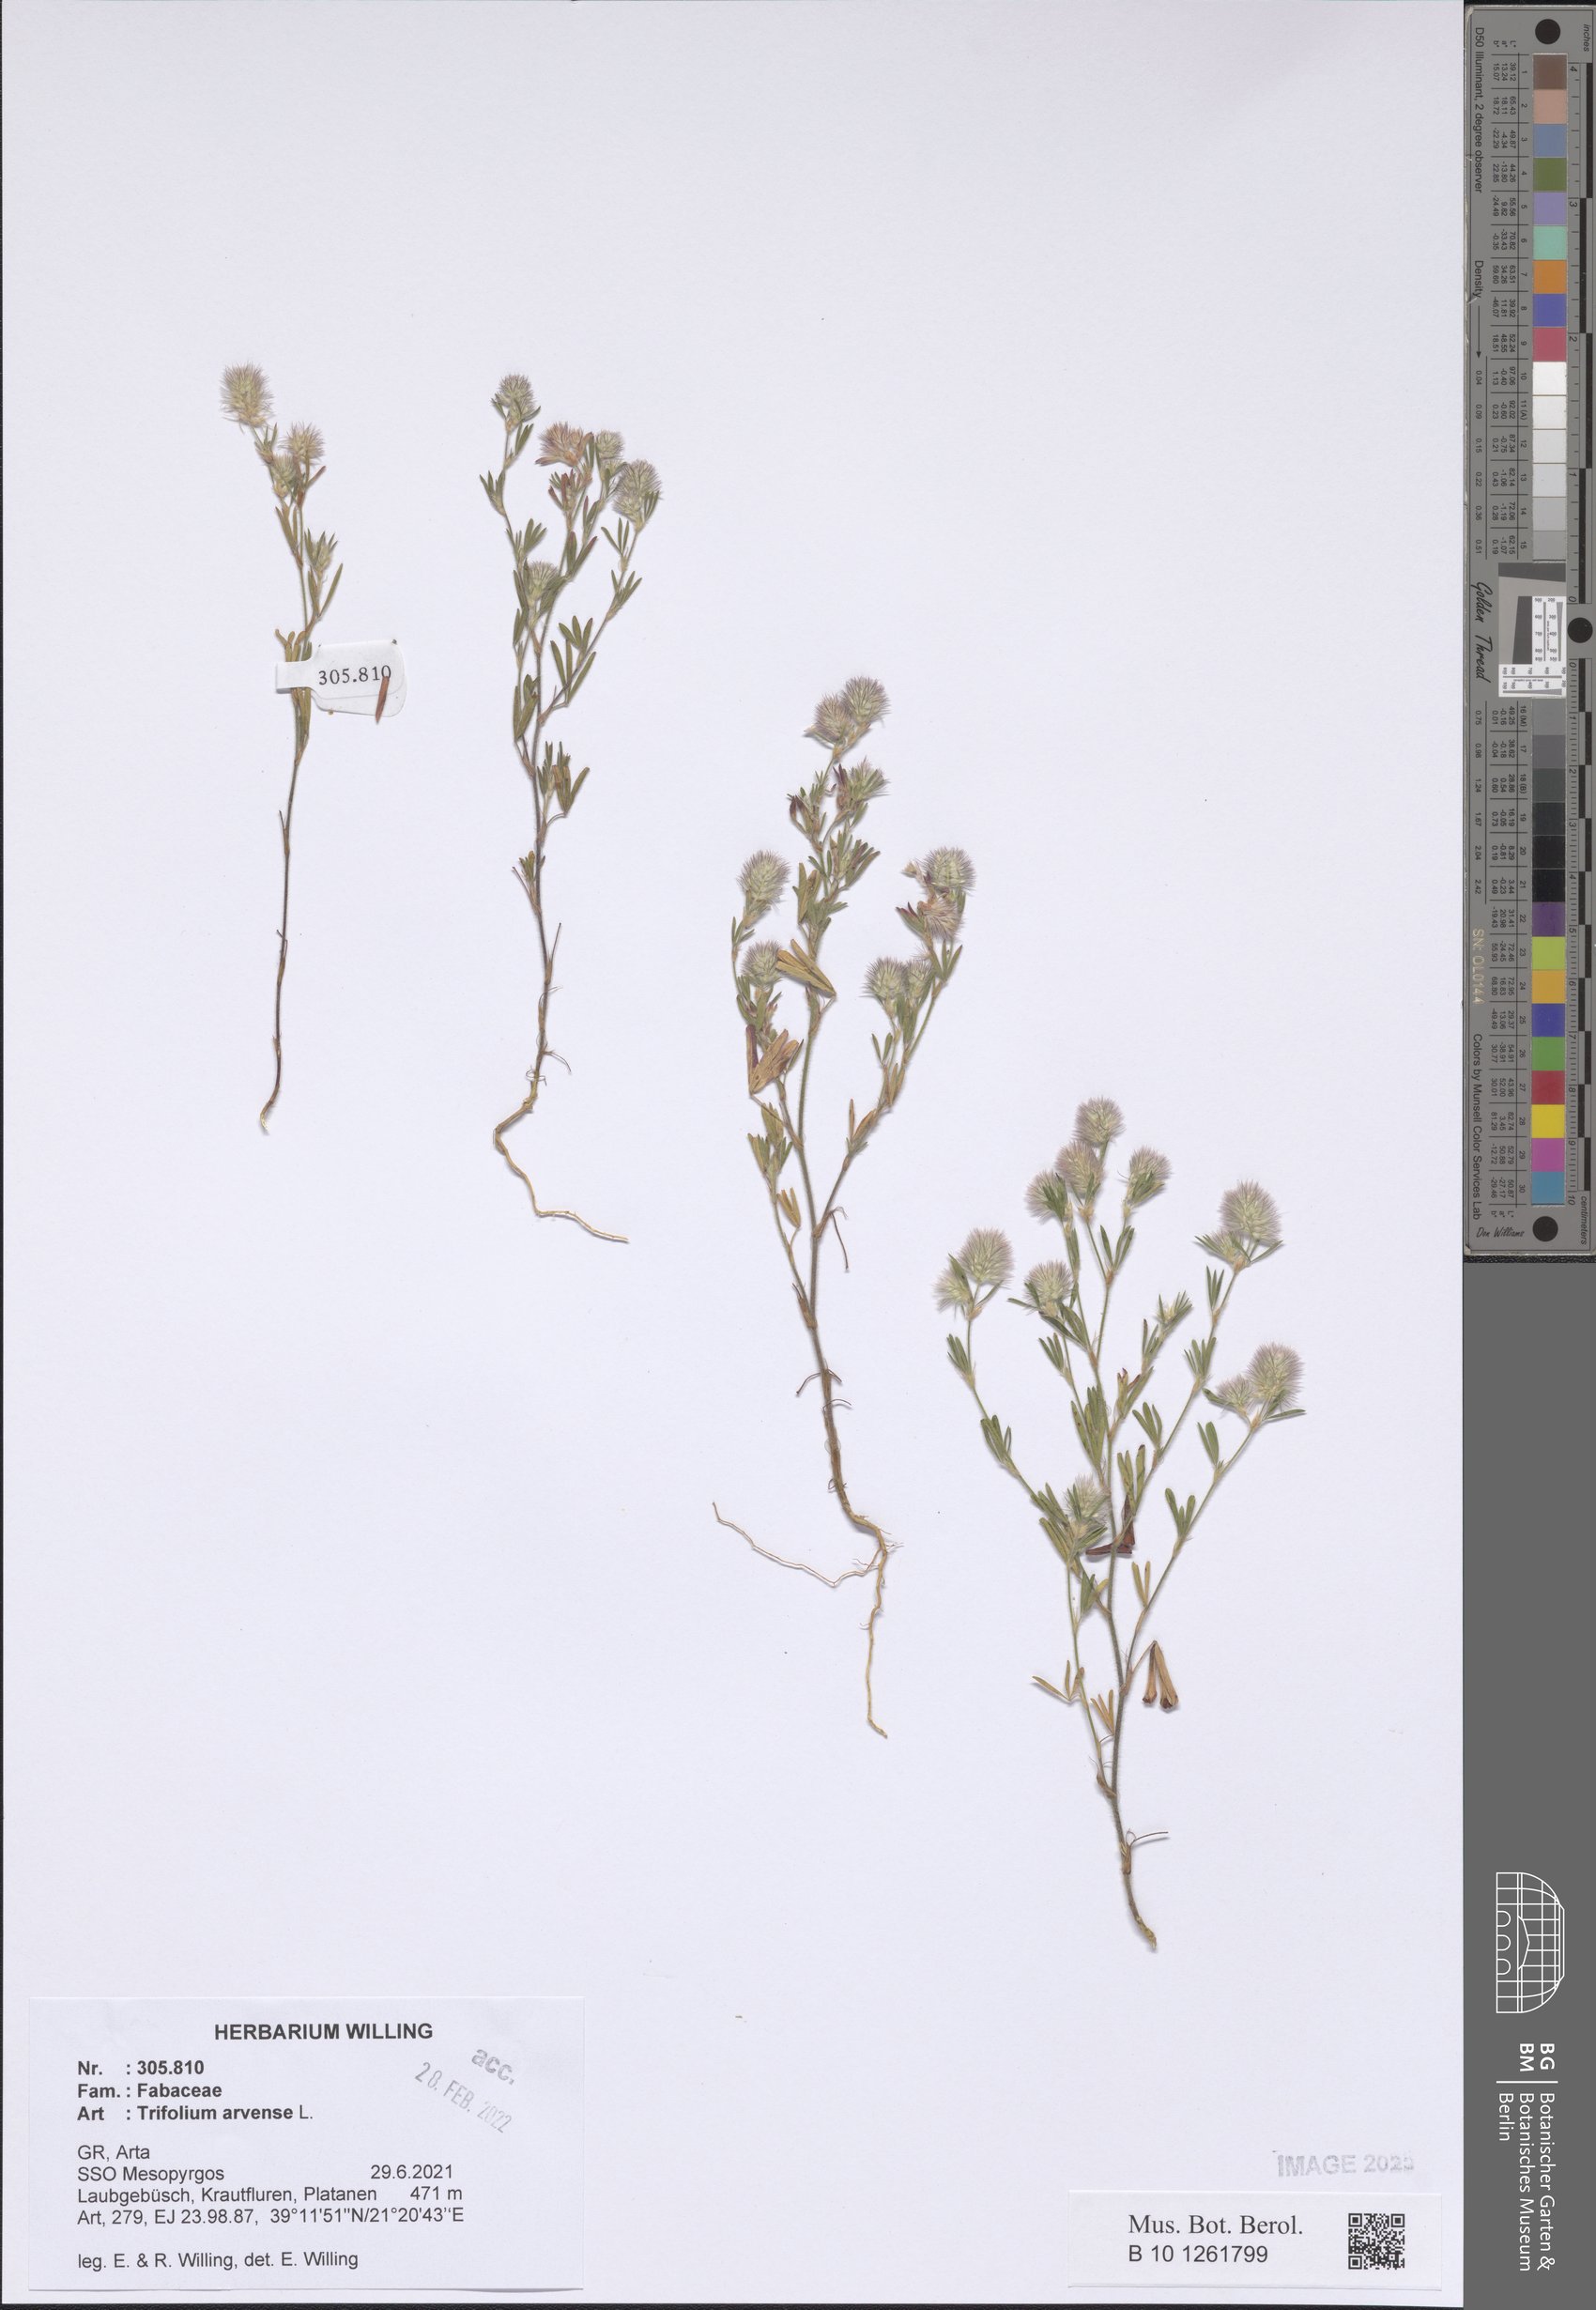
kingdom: Plantae
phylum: Tracheophyta
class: Magnoliopsida
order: Fabales
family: Fabaceae
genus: Trifolium
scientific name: Trifolium arvense
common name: Hare's-foot clover
